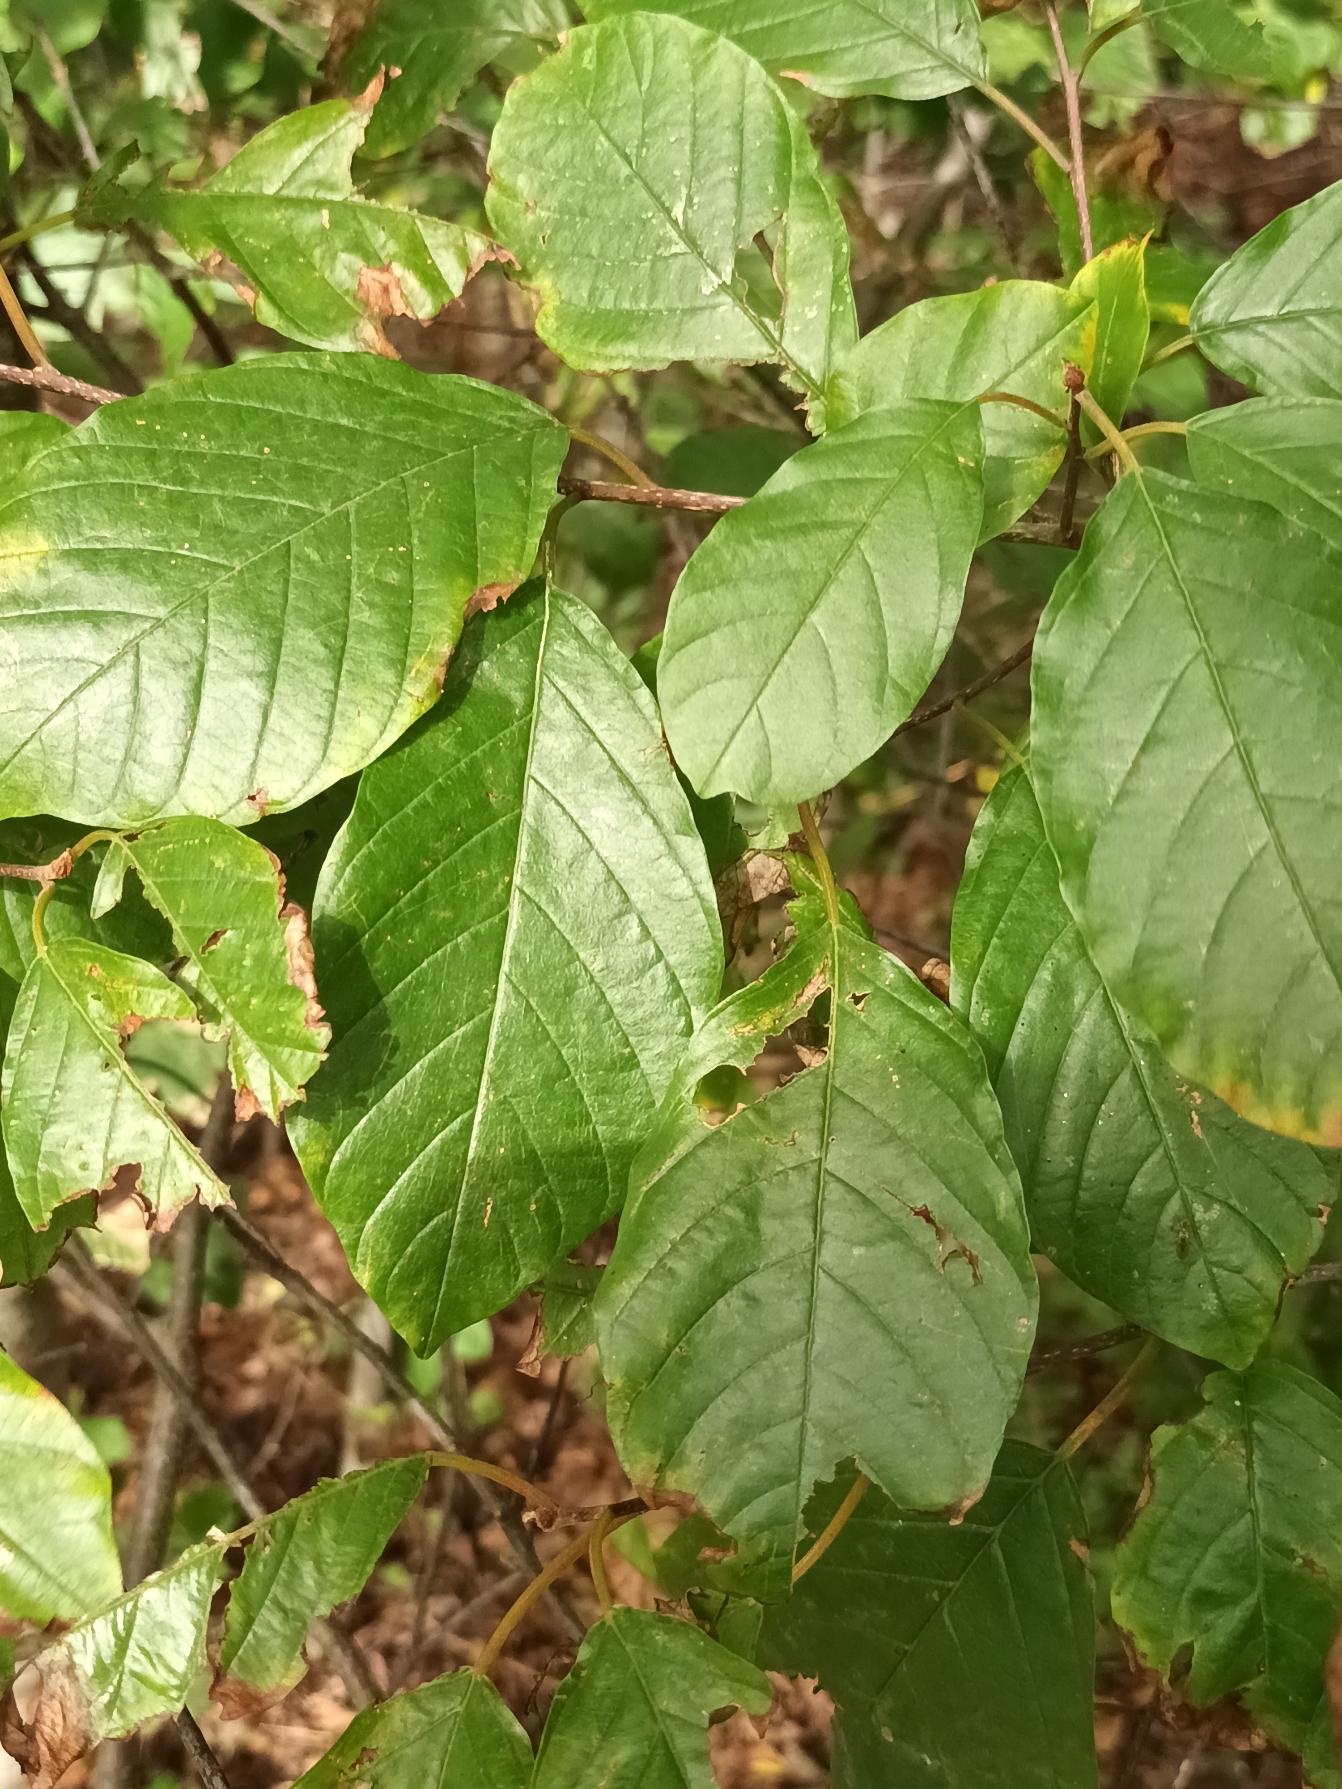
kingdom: Plantae
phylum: Tracheophyta
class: Magnoliopsida
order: Rosales
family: Rhamnaceae
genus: Frangula
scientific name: Frangula alnus
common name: Tørst
